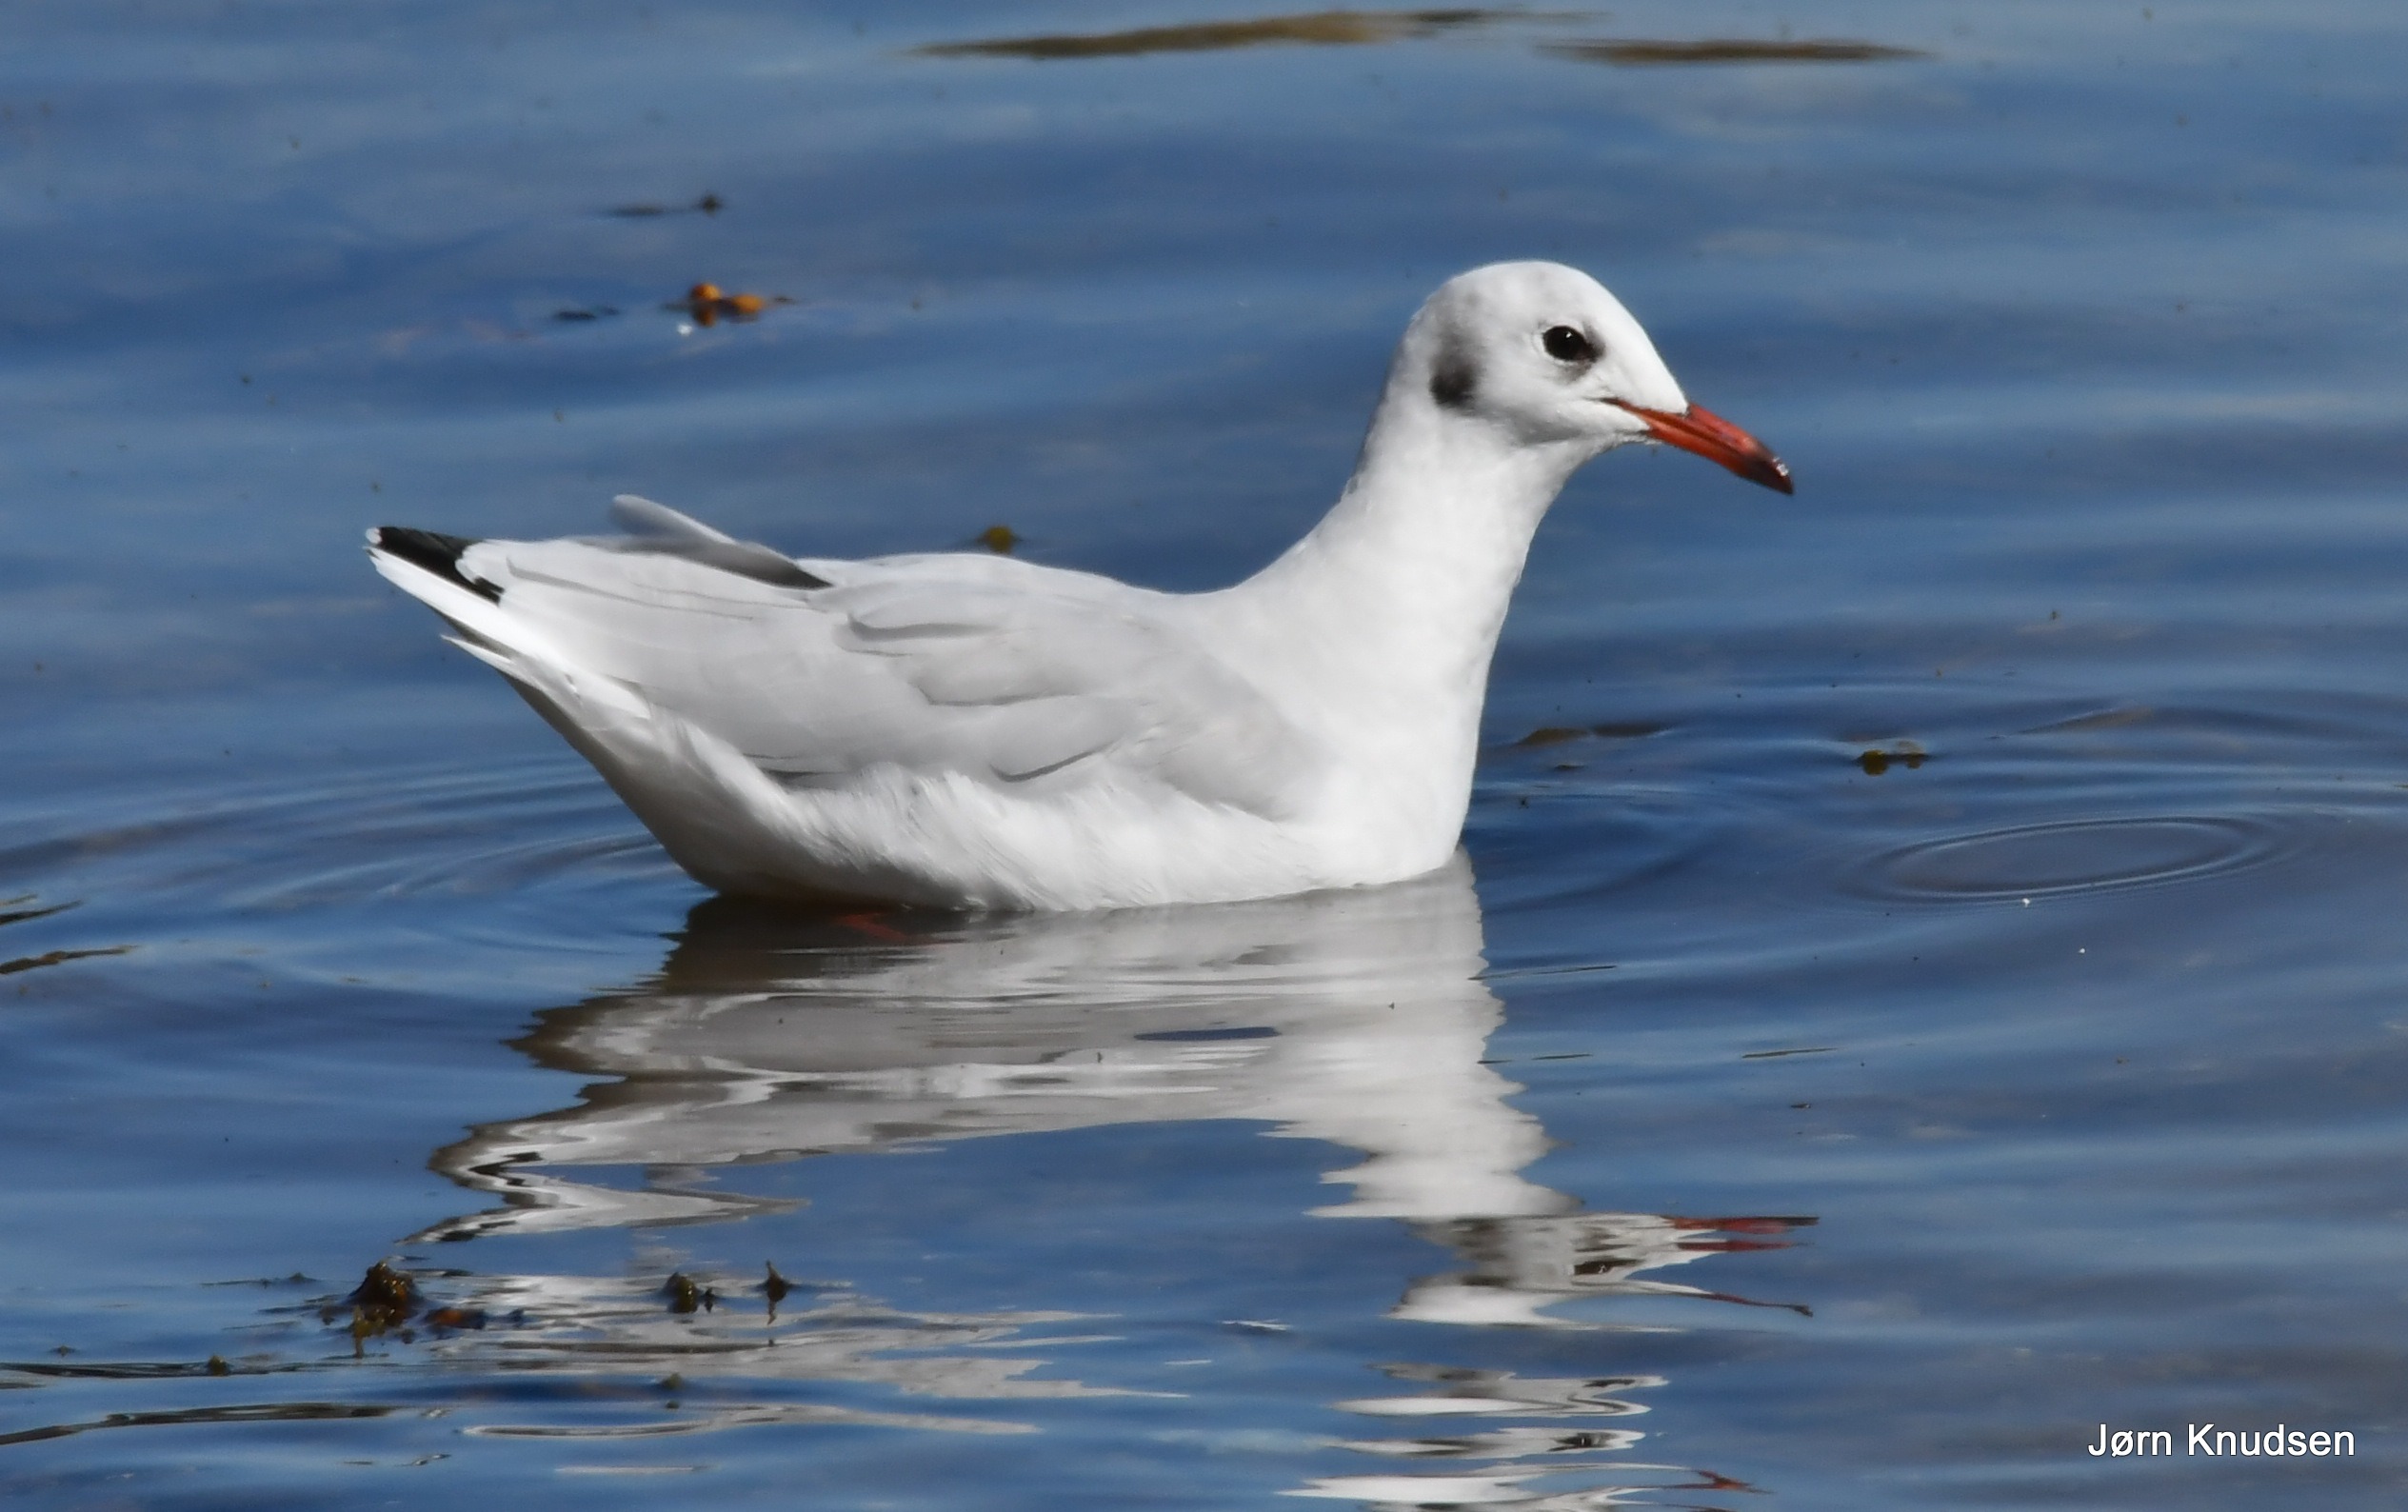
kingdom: Animalia
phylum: Chordata
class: Aves
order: Charadriiformes
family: Laridae
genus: Chroicocephalus
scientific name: Chroicocephalus ridibundus
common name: Hættemåge
